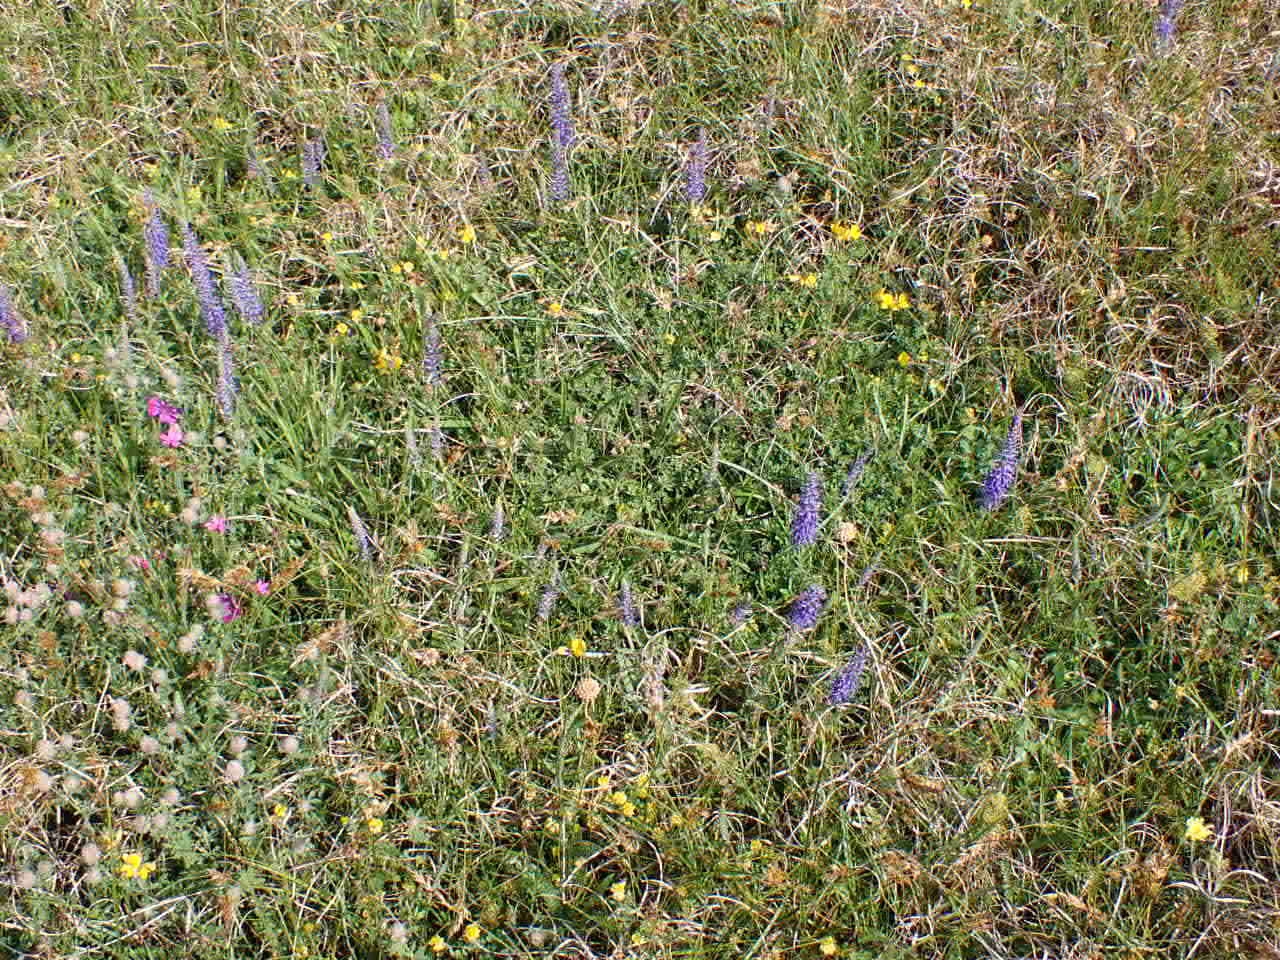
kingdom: Plantae
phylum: Tracheophyta
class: Magnoliopsida
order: Lamiales
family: Plantaginaceae
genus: Veronica
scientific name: Veronica spicata
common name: Aks-ærenpris
